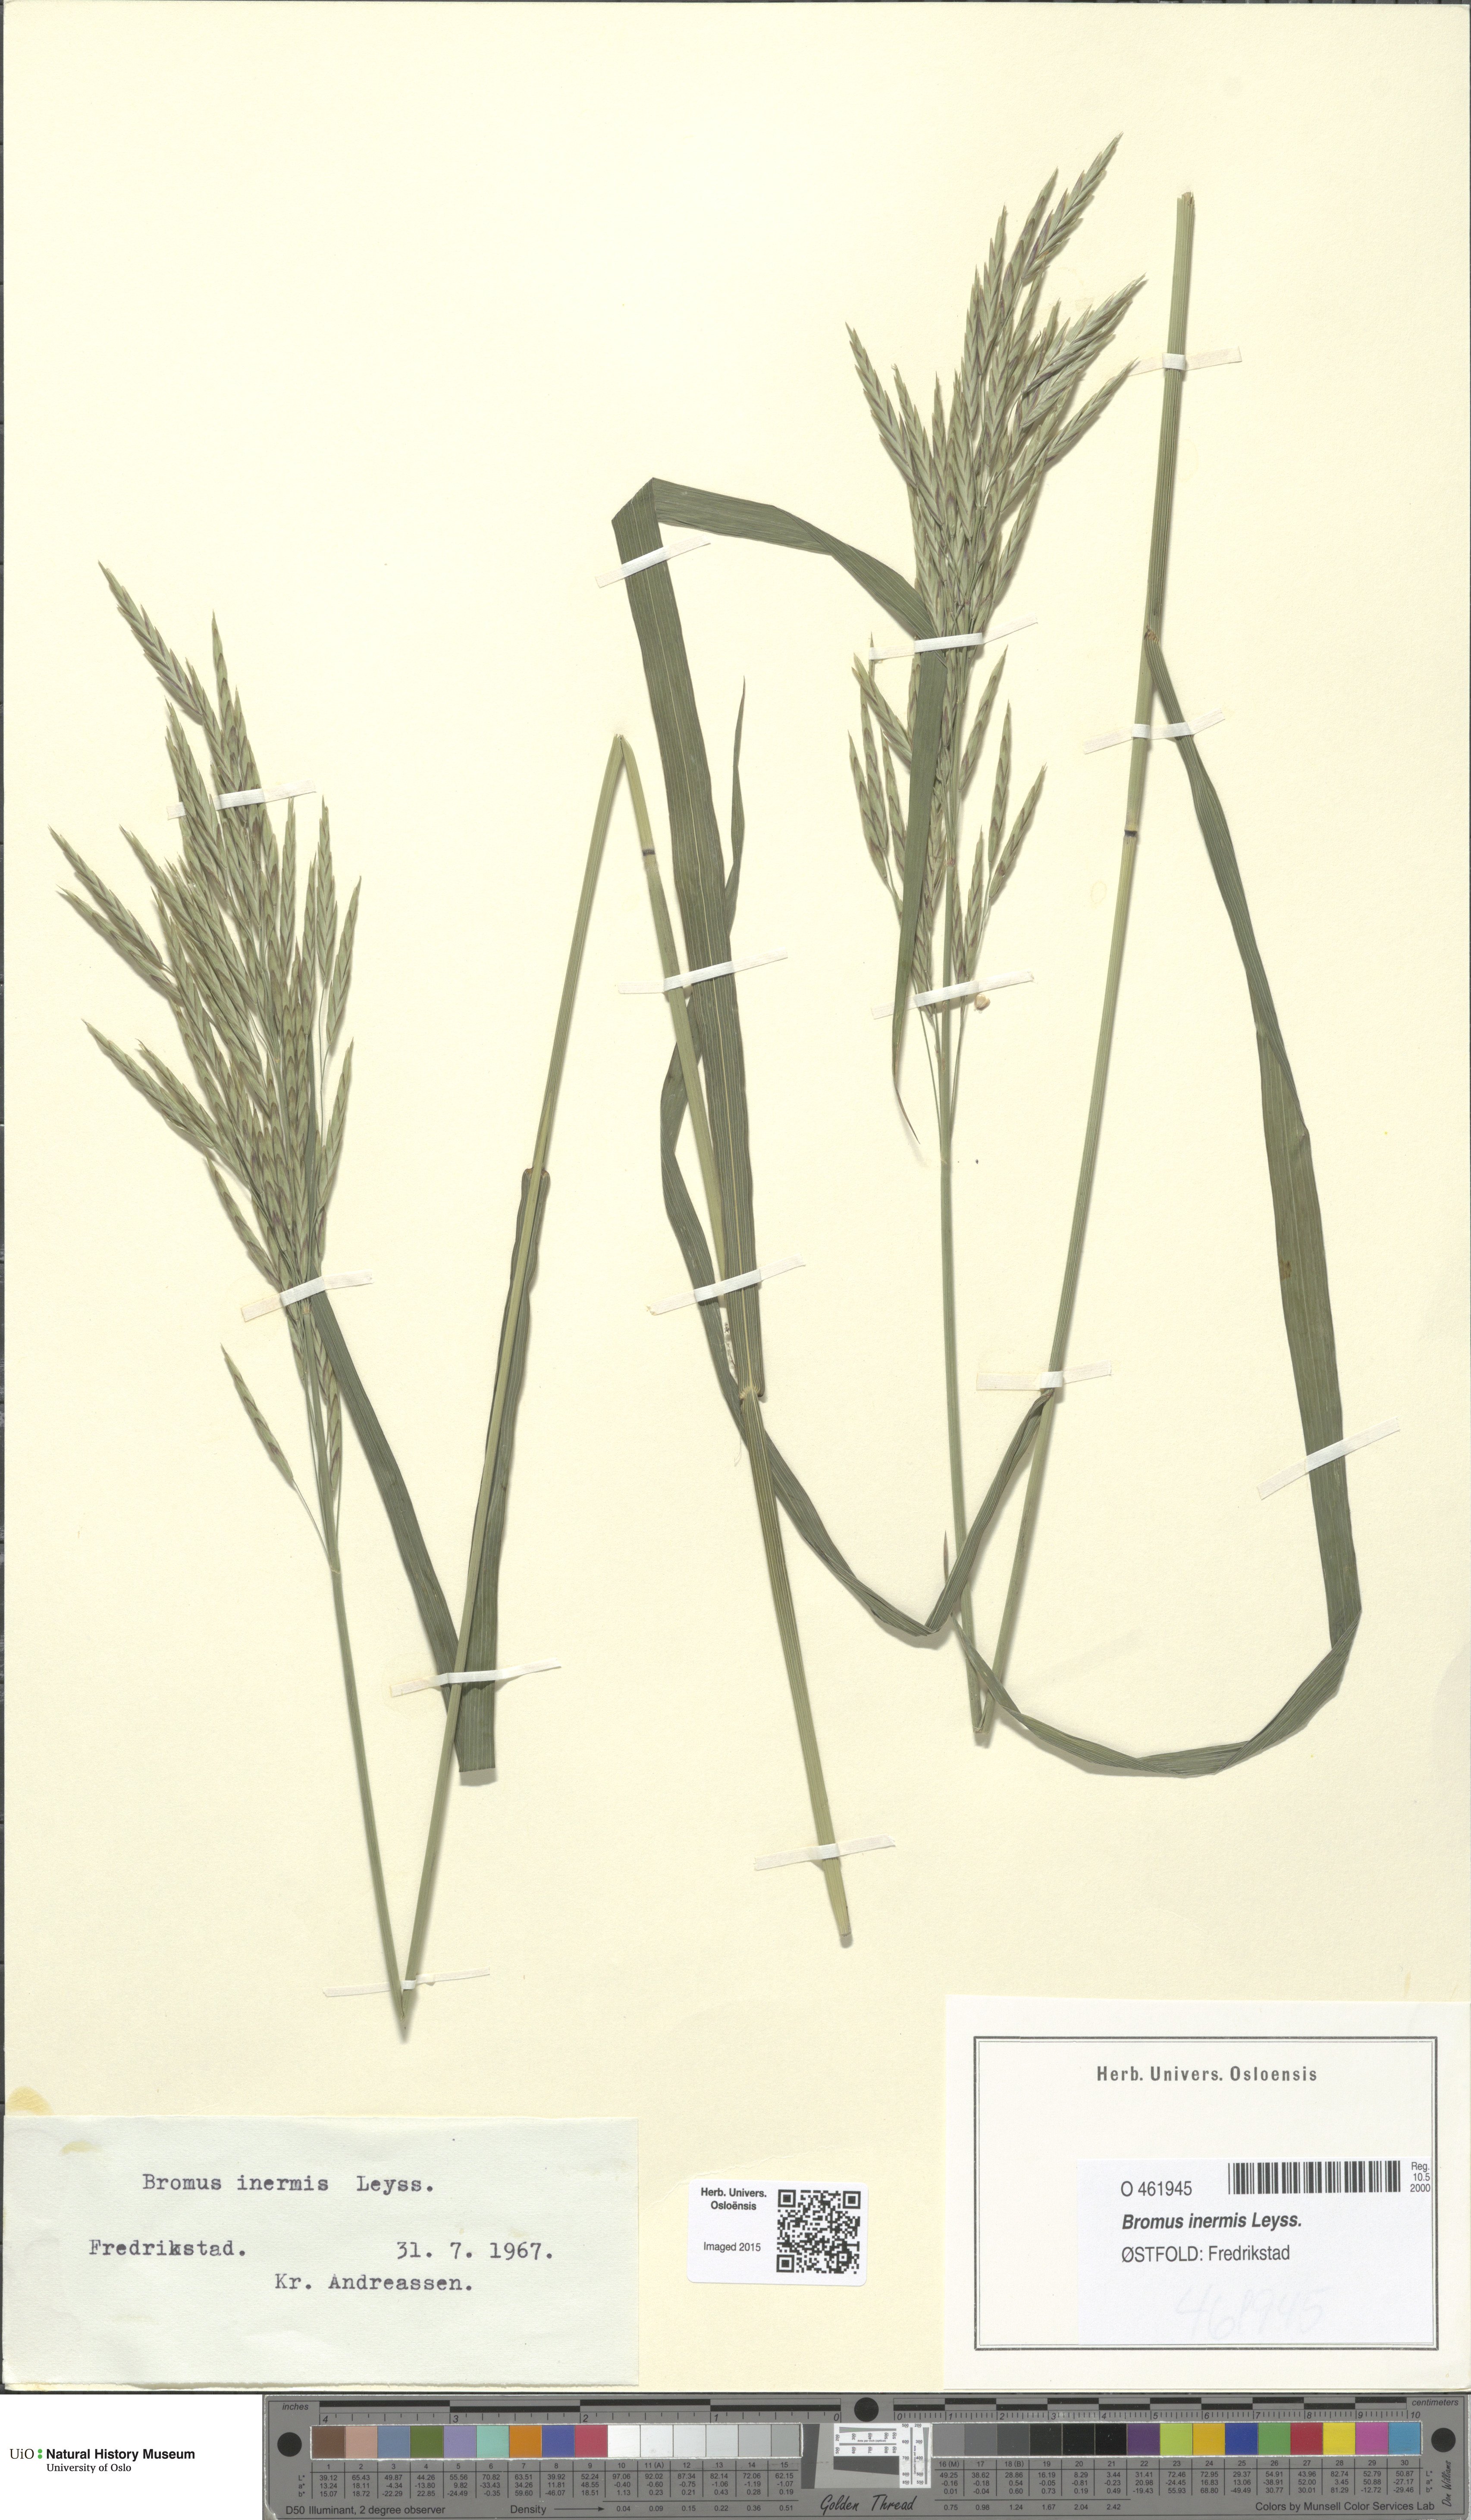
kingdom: Plantae
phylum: Tracheophyta
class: Liliopsida
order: Poales
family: Poaceae
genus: Bromus
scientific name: Bromus inermis
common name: Smooth brome
